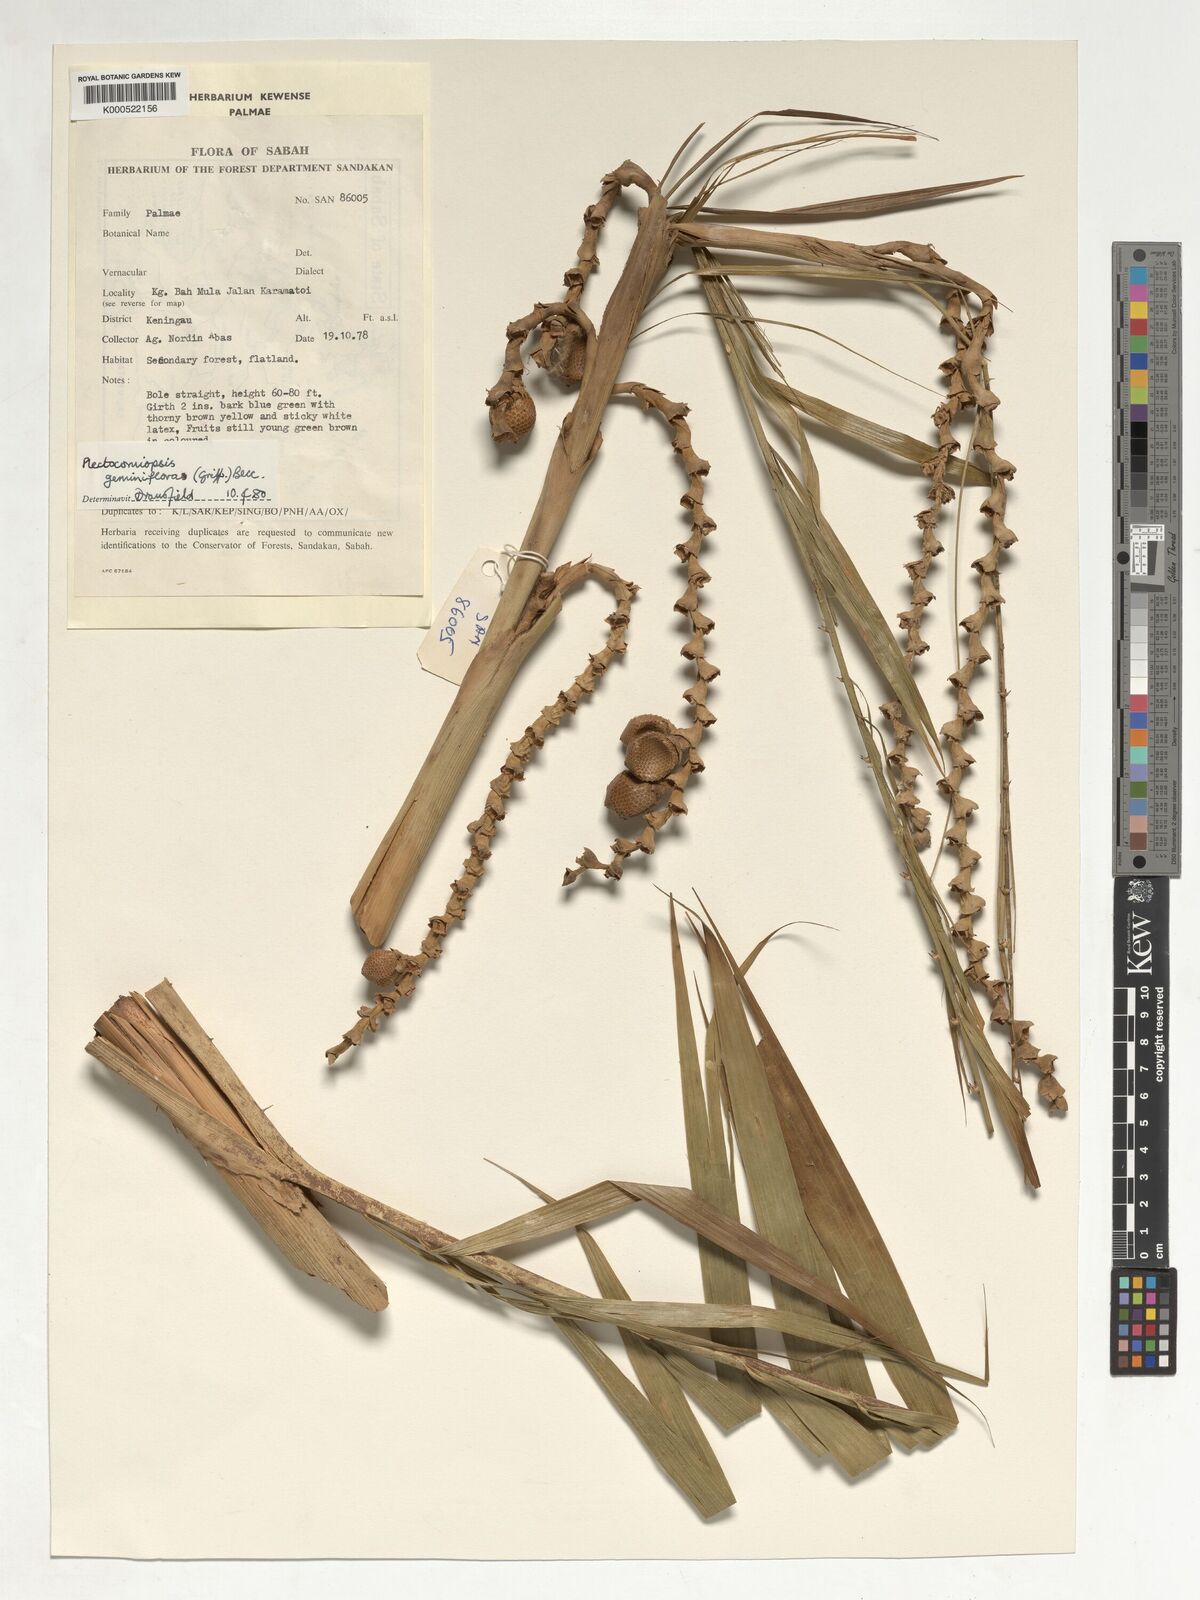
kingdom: Plantae
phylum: Tracheophyta
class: Liliopsida
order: Arecales
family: Arecaceae
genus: Plectocomiopsis
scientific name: Plectocomiopsis geminiflora
